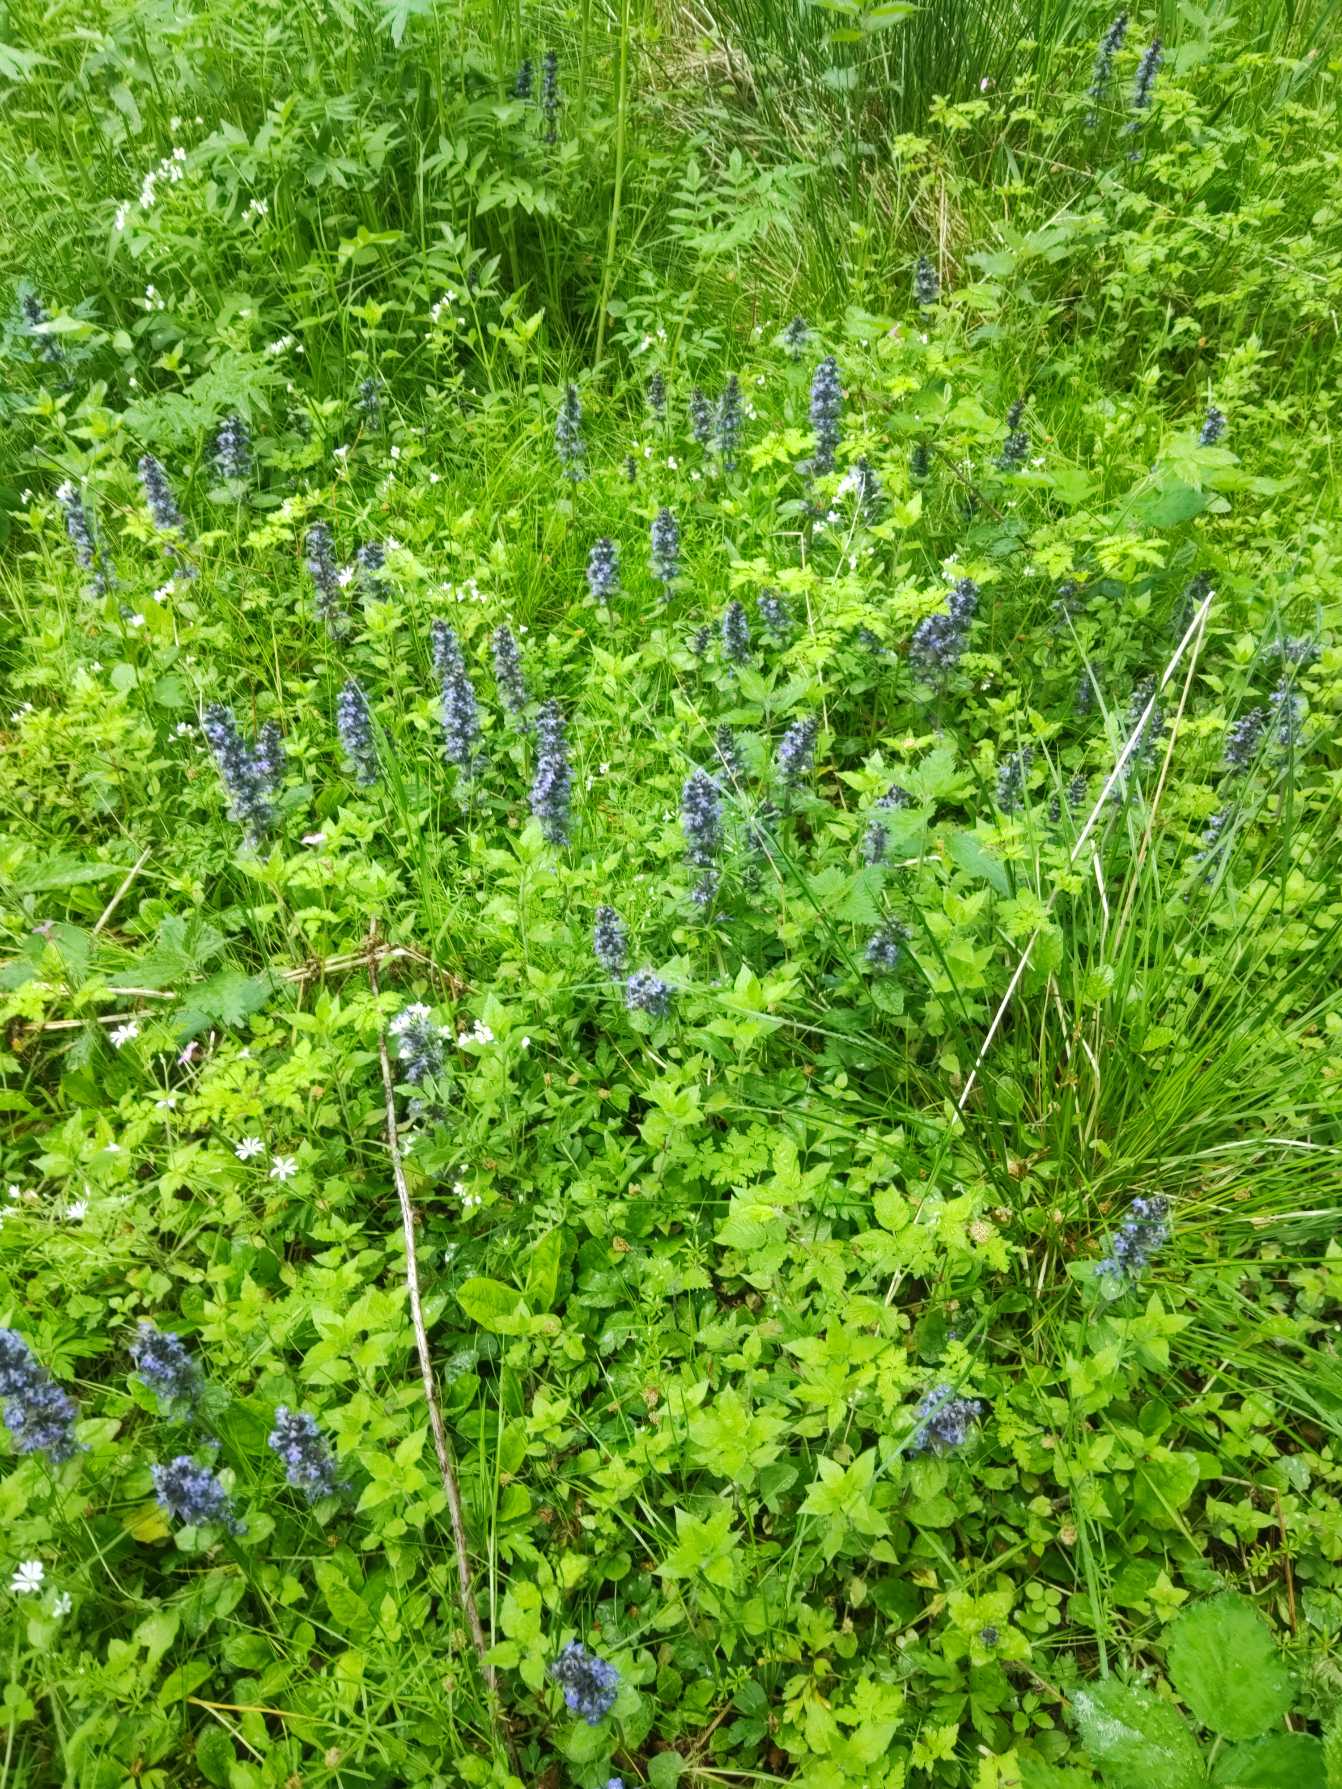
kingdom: Plantae
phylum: Tracheophyta
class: Magnoliopsida
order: Lamiales
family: Lamiaceae
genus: Ajuga
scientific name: Ajuga reptans
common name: Krybende læbeløs
